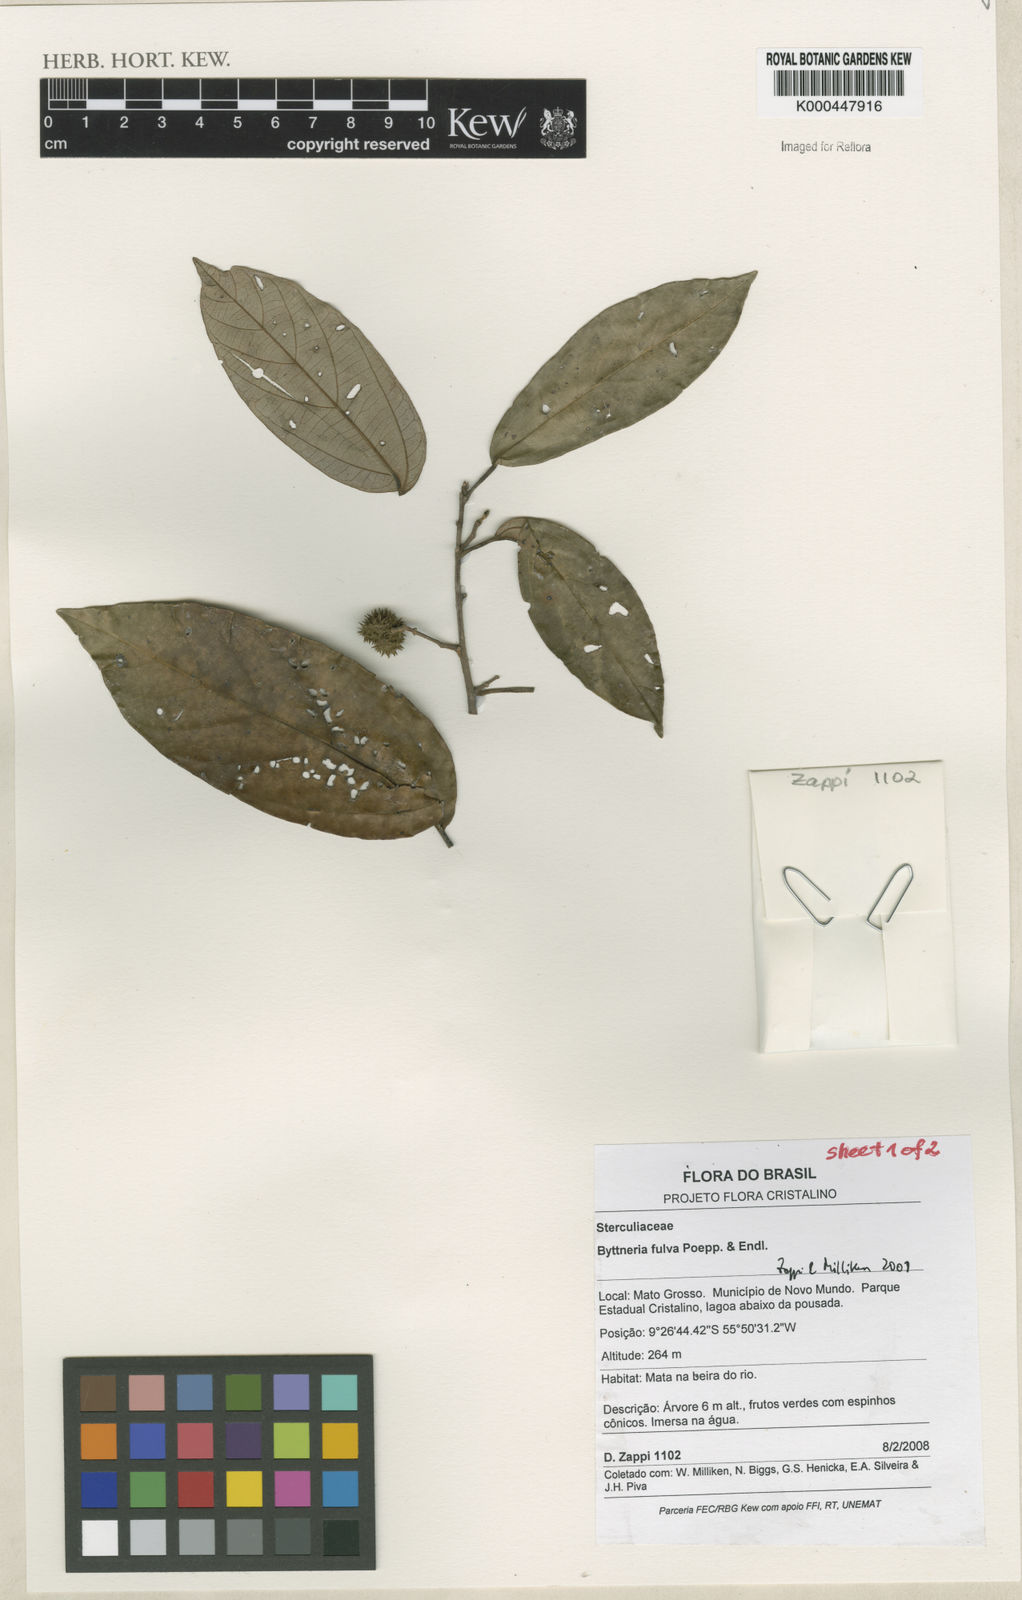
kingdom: Plantae
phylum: Tracheophyta
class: Magnoliopsida
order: Malvales
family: Malvaceae
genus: Byttneria
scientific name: Byttneria fulva
